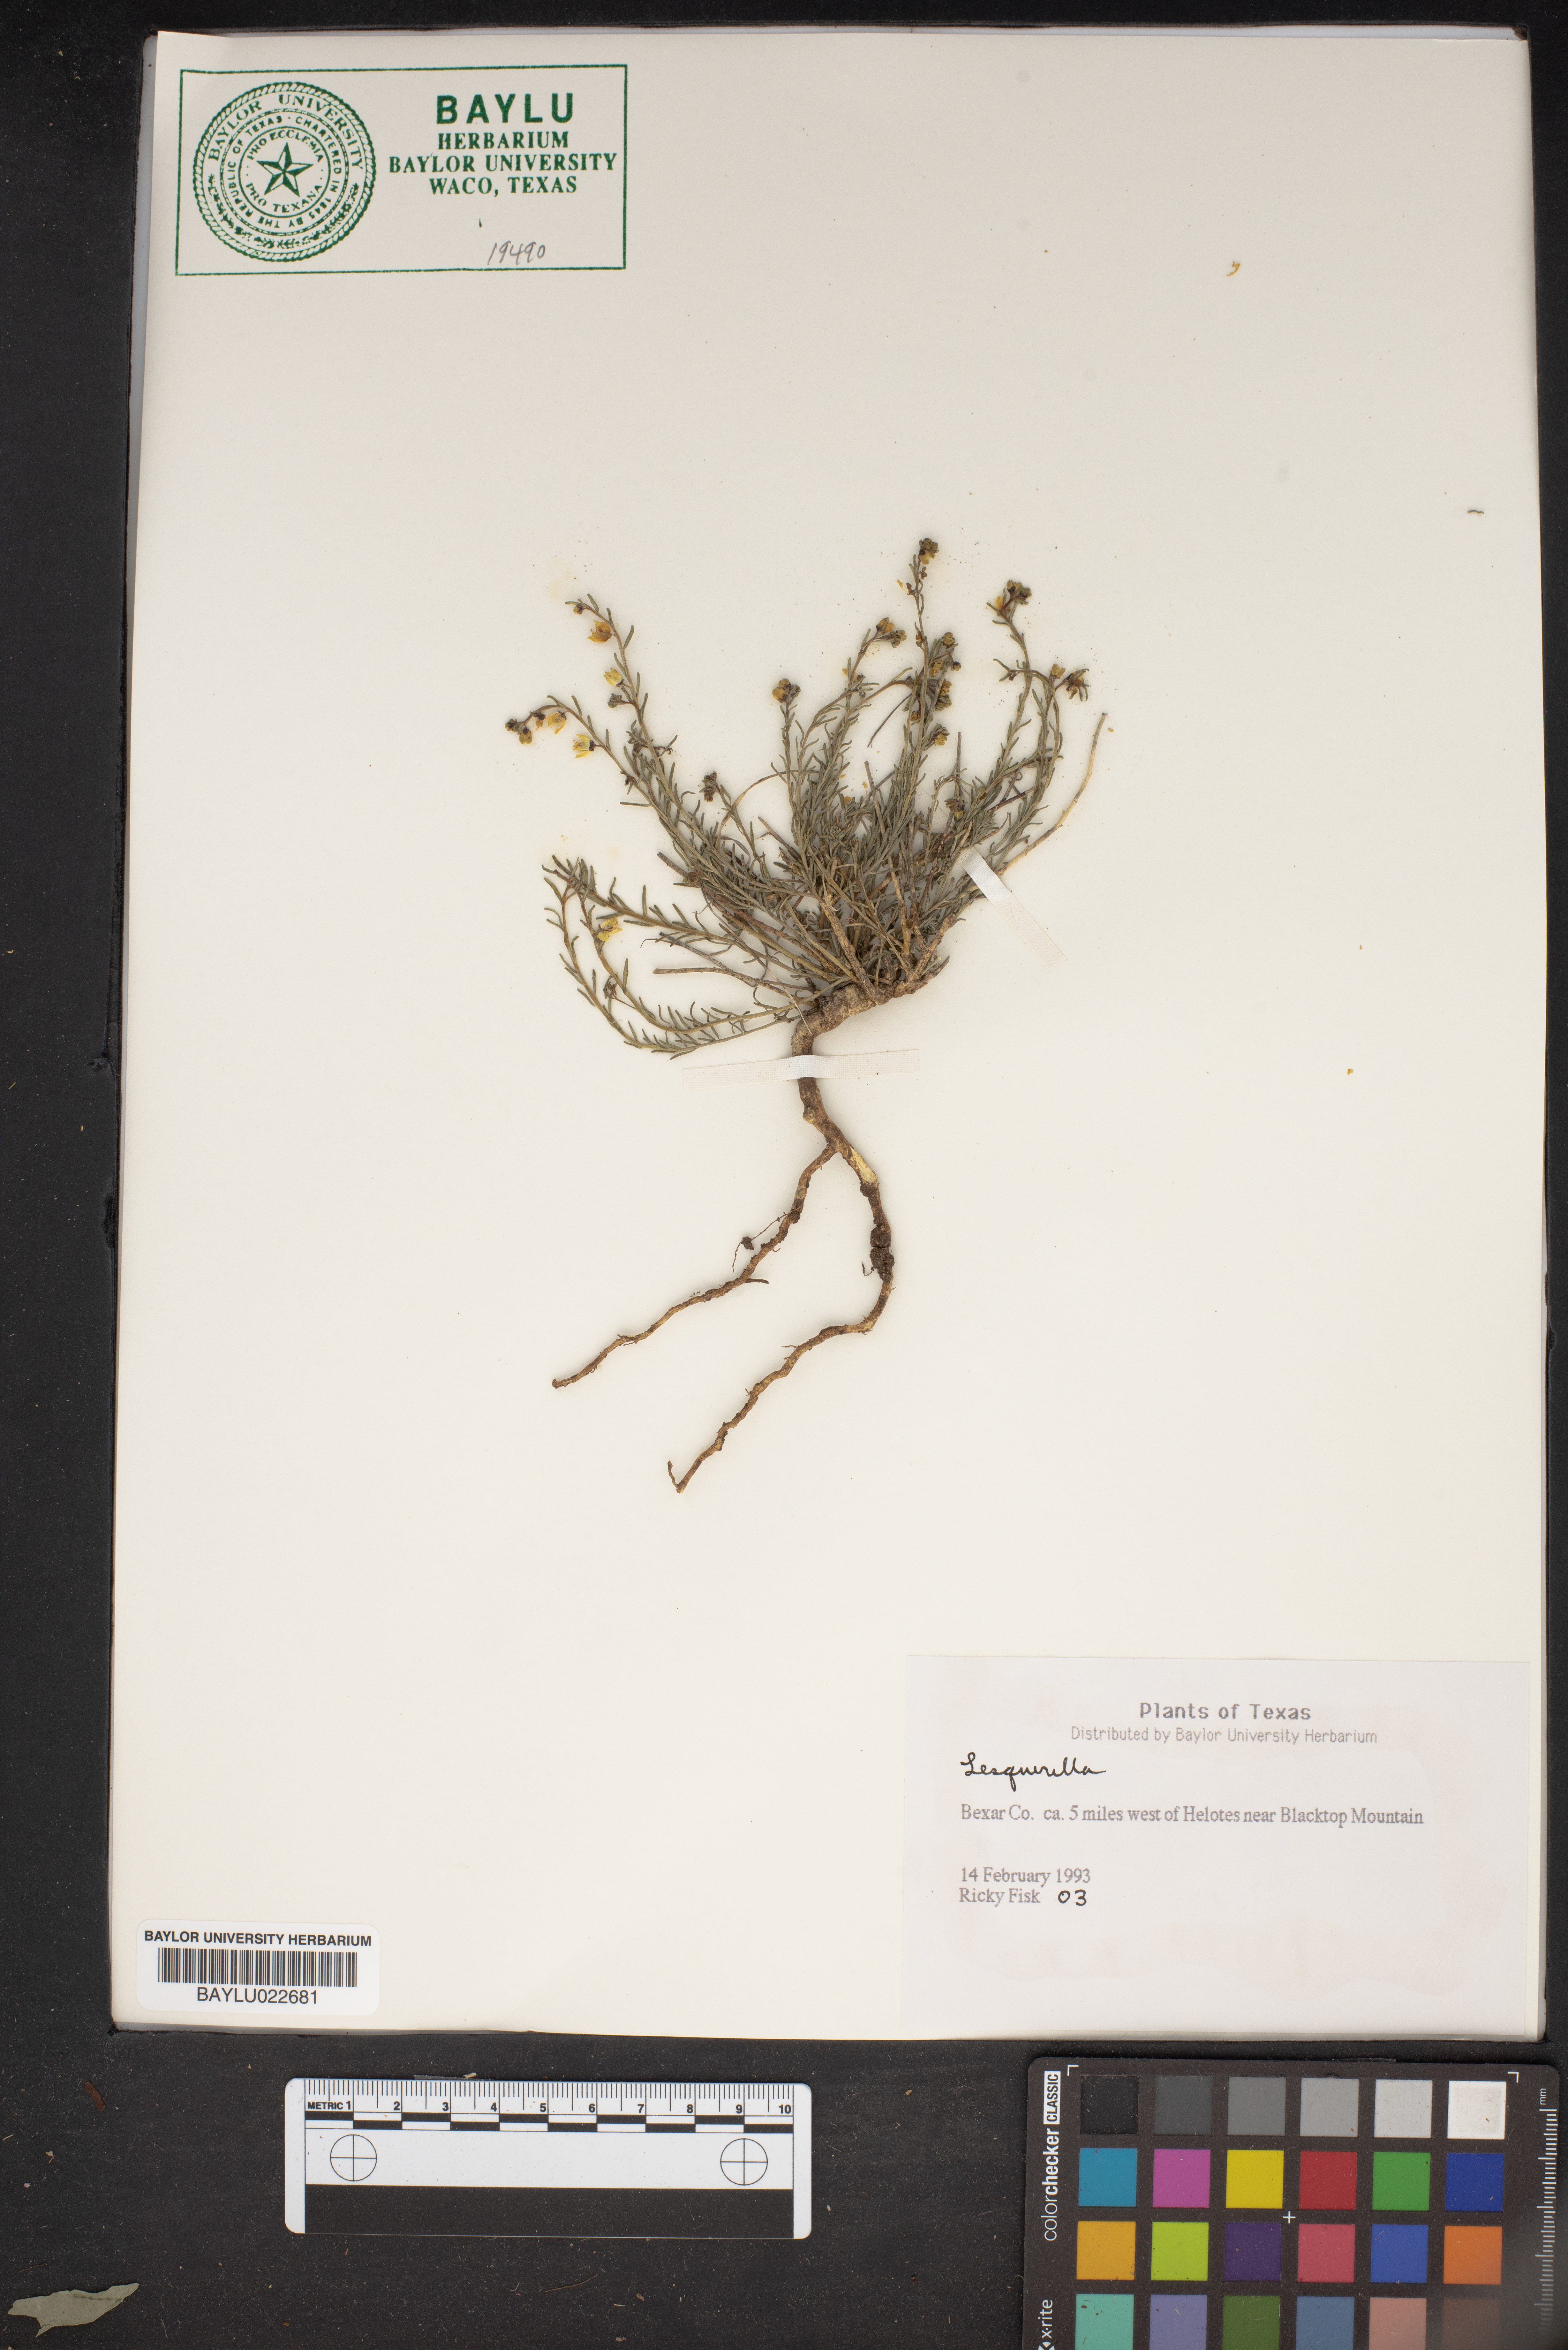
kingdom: Chromista
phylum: Cercozoa
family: Psammonobiotidae
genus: Lesquerella
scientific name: Lesquerella
